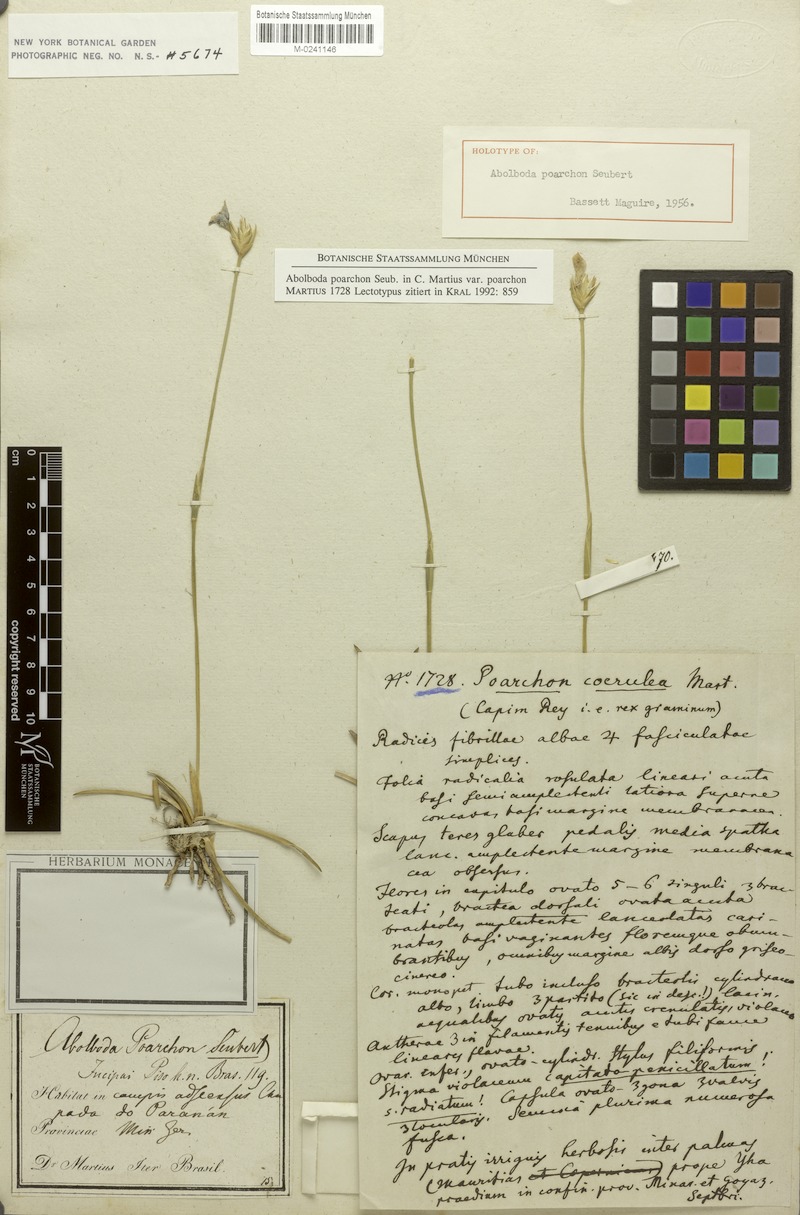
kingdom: Plantae
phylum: Tracheophyta
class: Liliopsida
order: Poales
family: Xyridaceae
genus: Abolboda
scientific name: Abolboda poarchon
